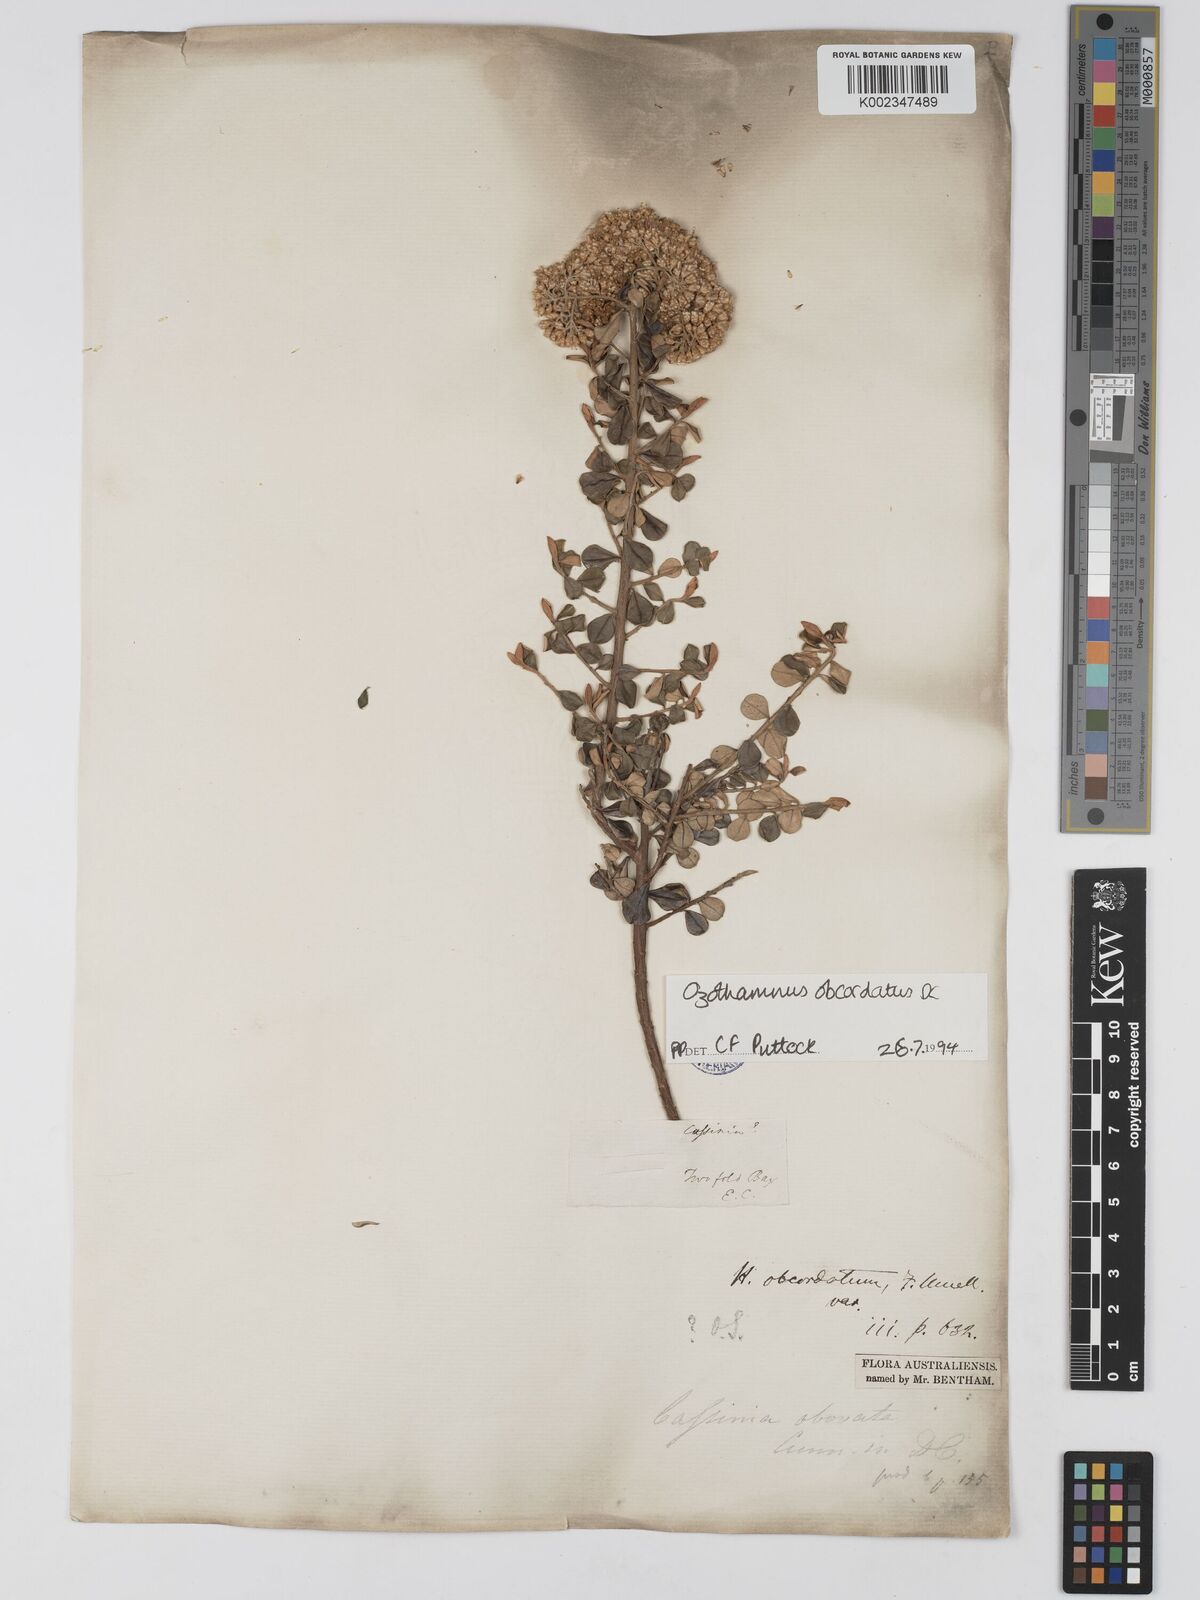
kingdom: Plantae
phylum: Tracheophyta
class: Magnoliopsida
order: Asterales
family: Asteraceae
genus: Ozothamnus
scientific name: Ozothamnus obcordatus
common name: Grey everlasting
